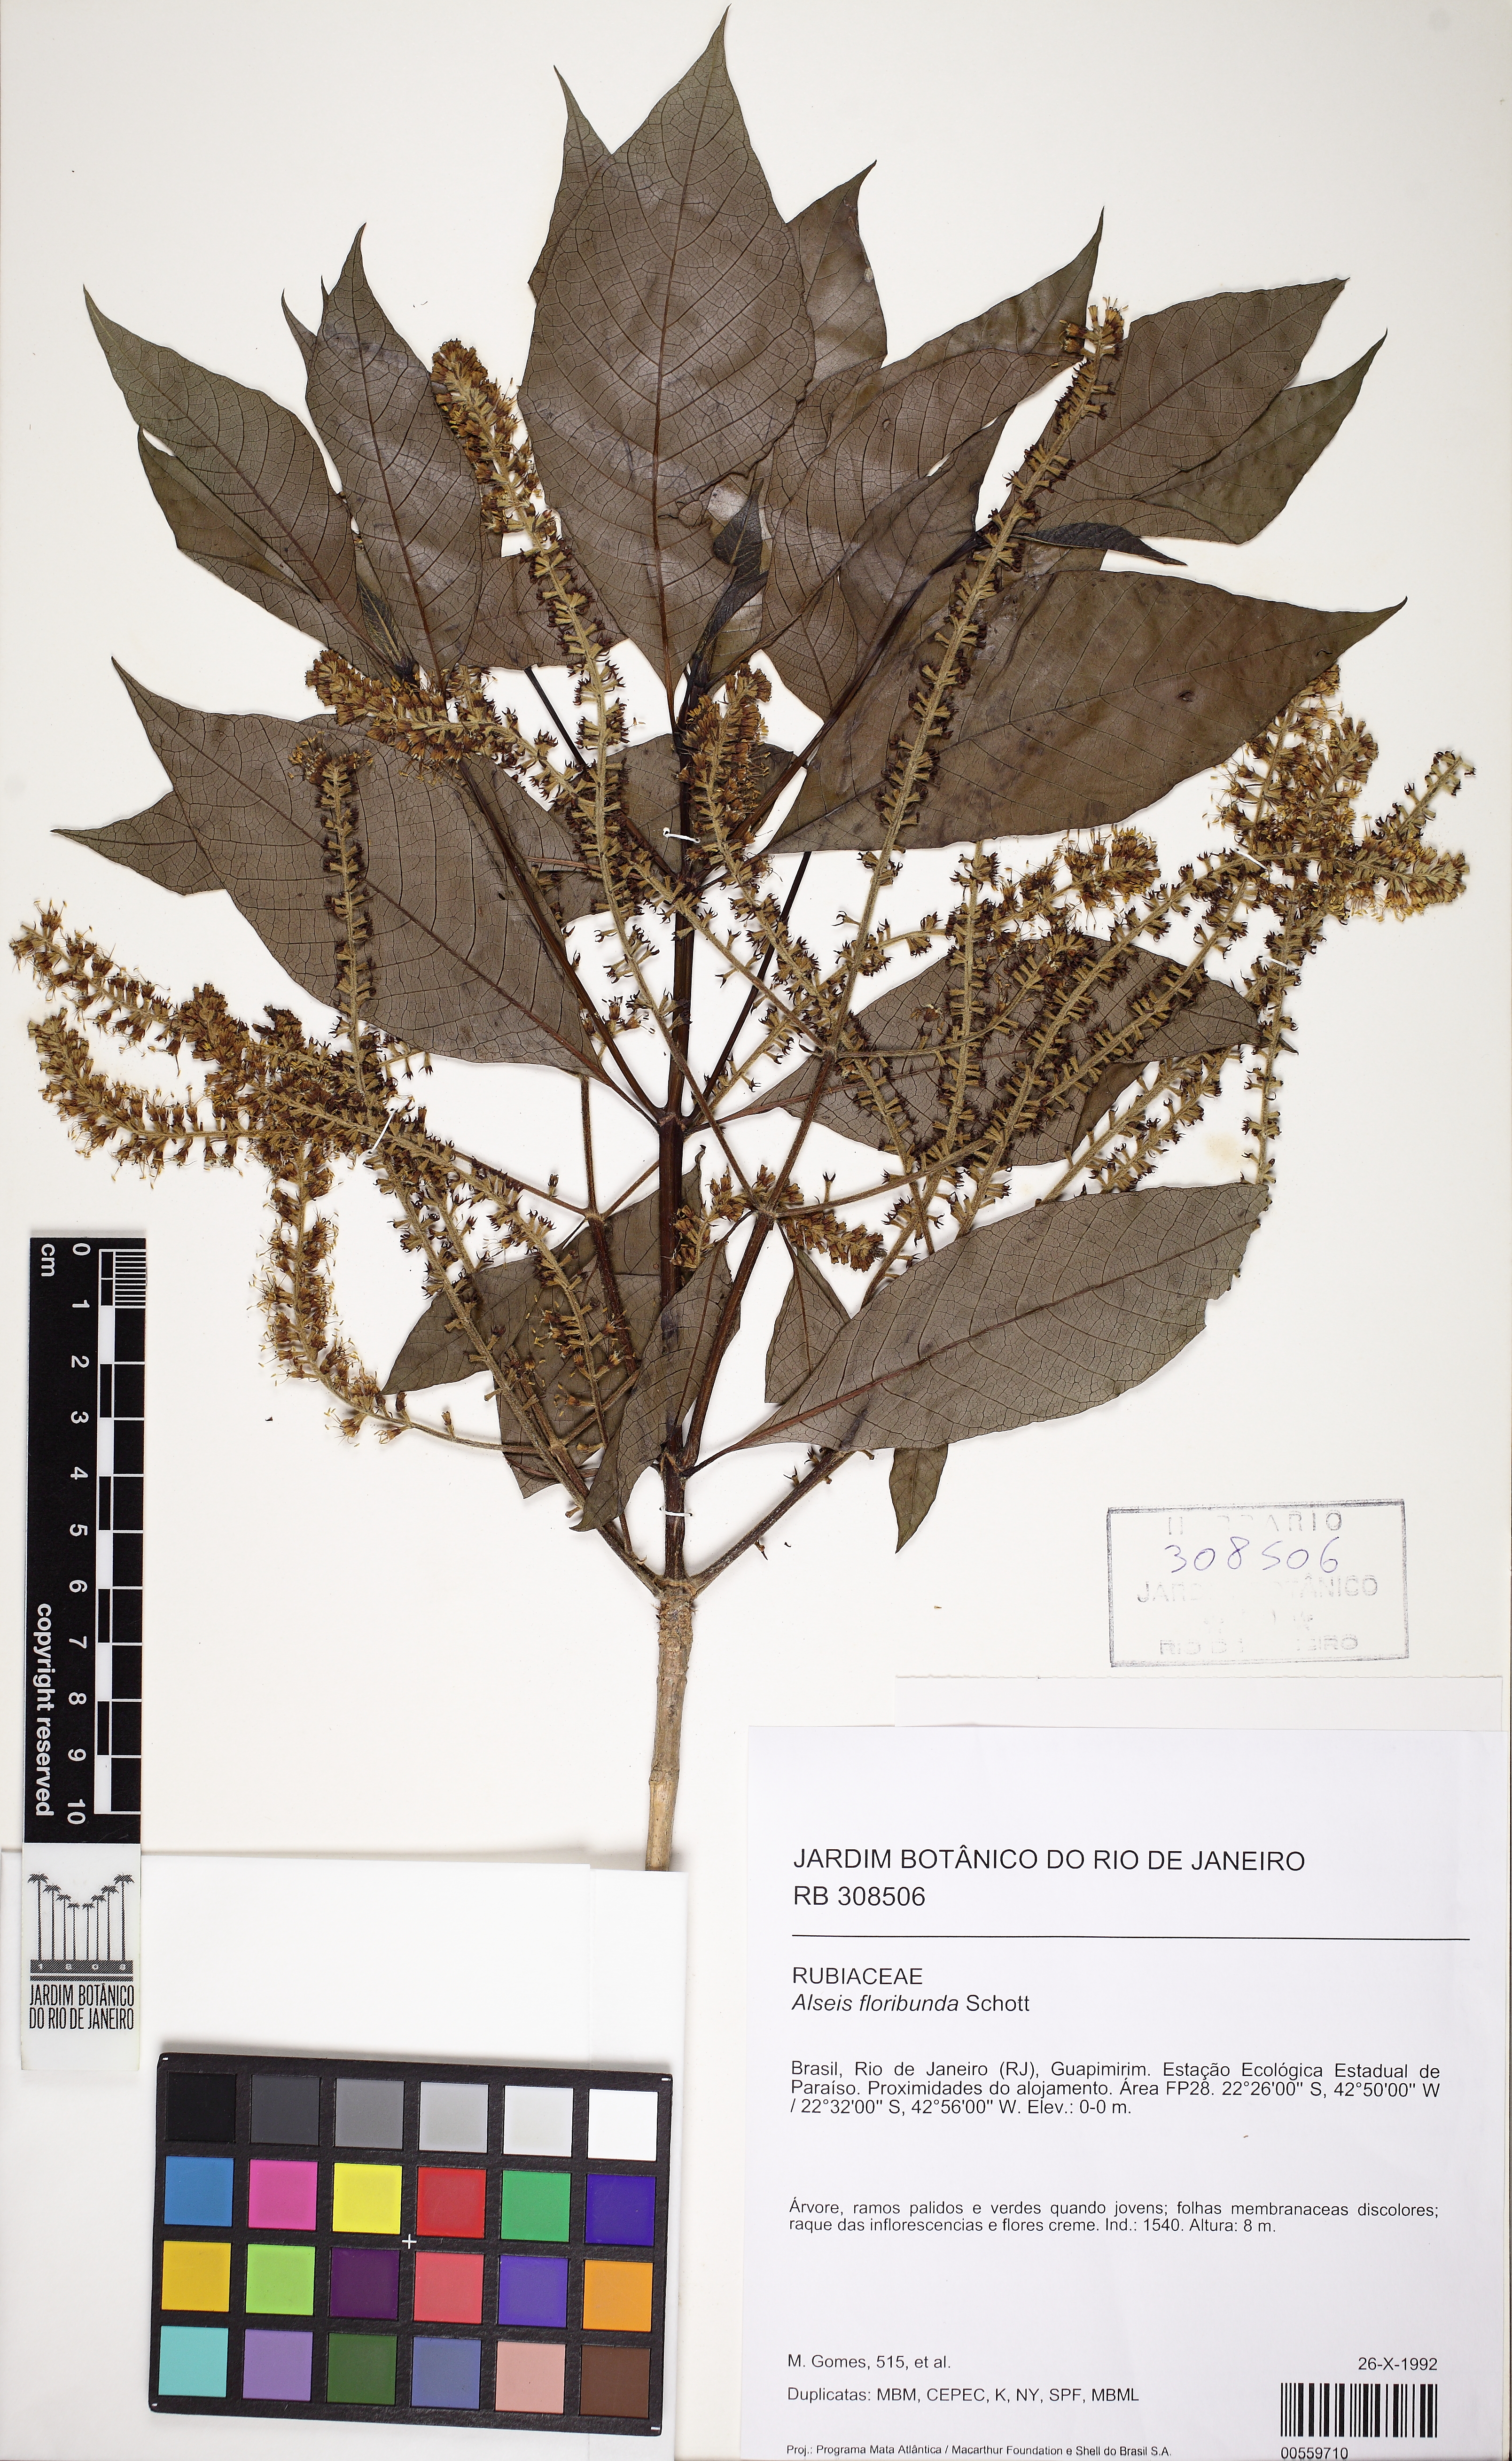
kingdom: Plantae
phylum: Tracheophyta
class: Magnoliopsida
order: Gentianales
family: Rubiaceae
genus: Alseis
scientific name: Alseis floribunda
